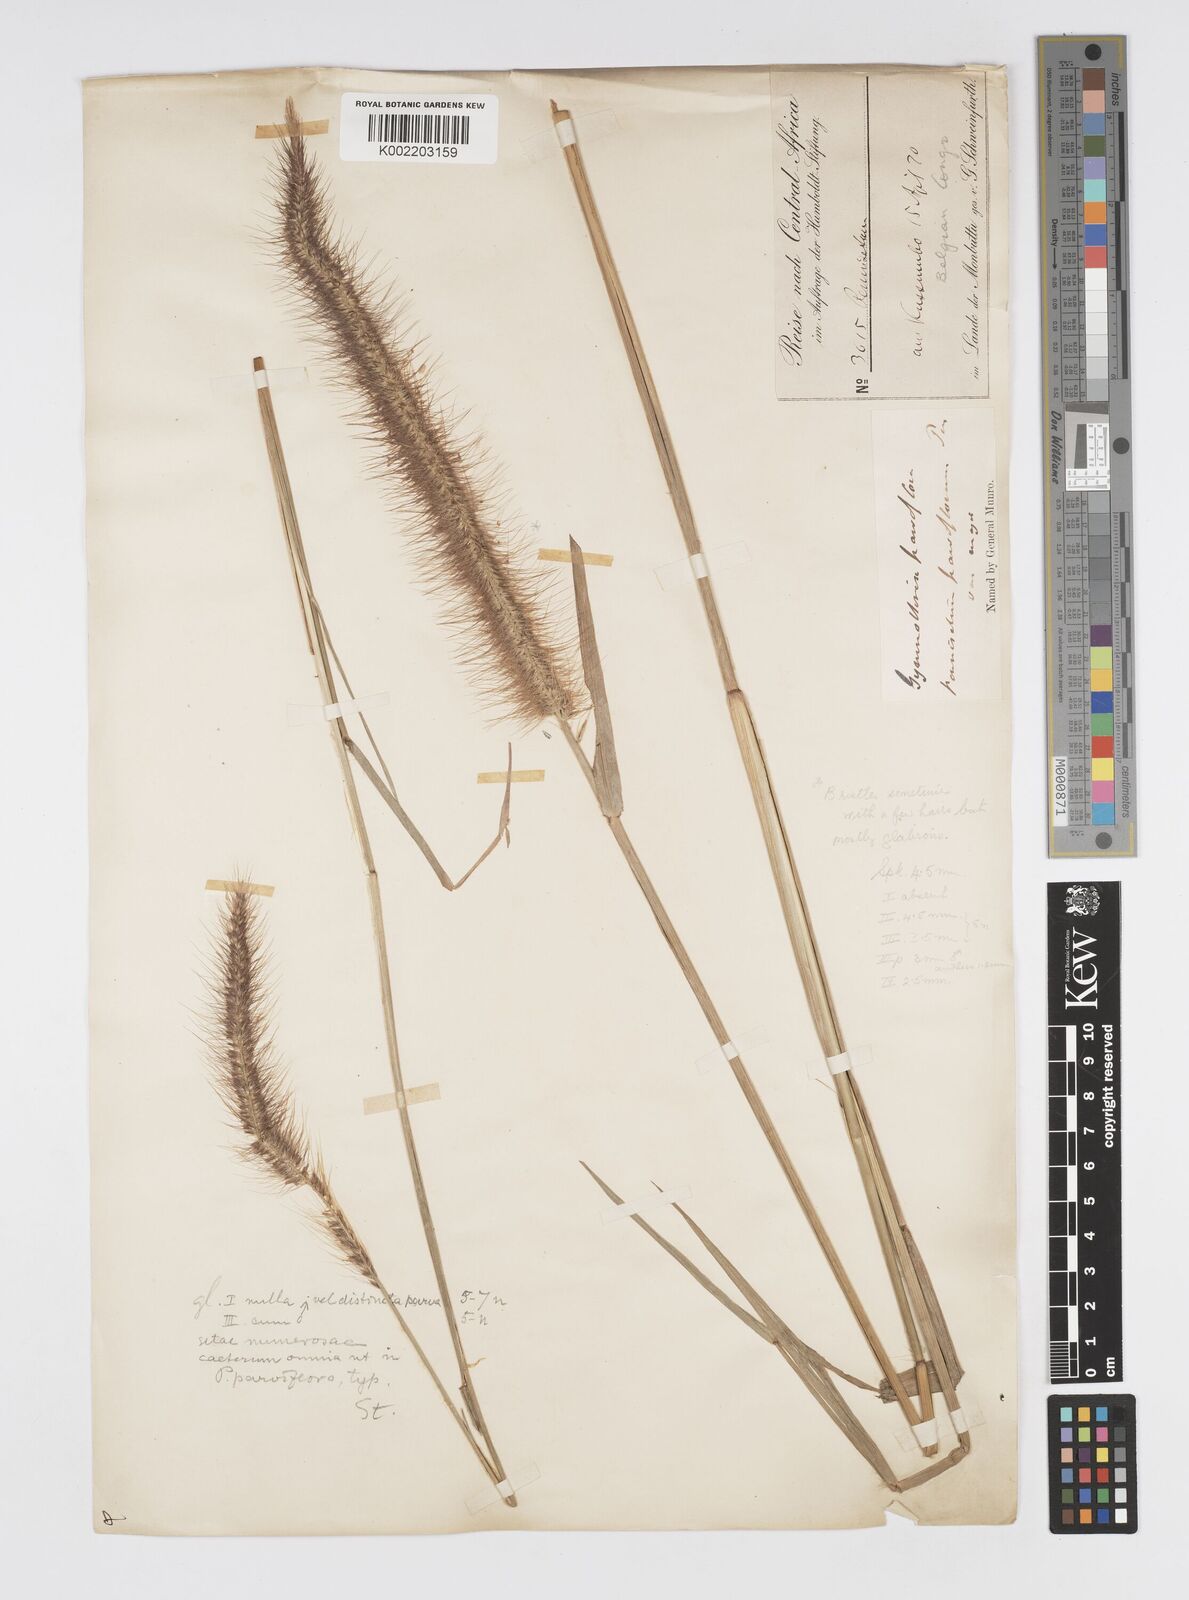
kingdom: Plantae
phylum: Tracheophyta
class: Liliopsida
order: Poales
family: Poaceae
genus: Cenchrus
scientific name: Cenchrus setosus
